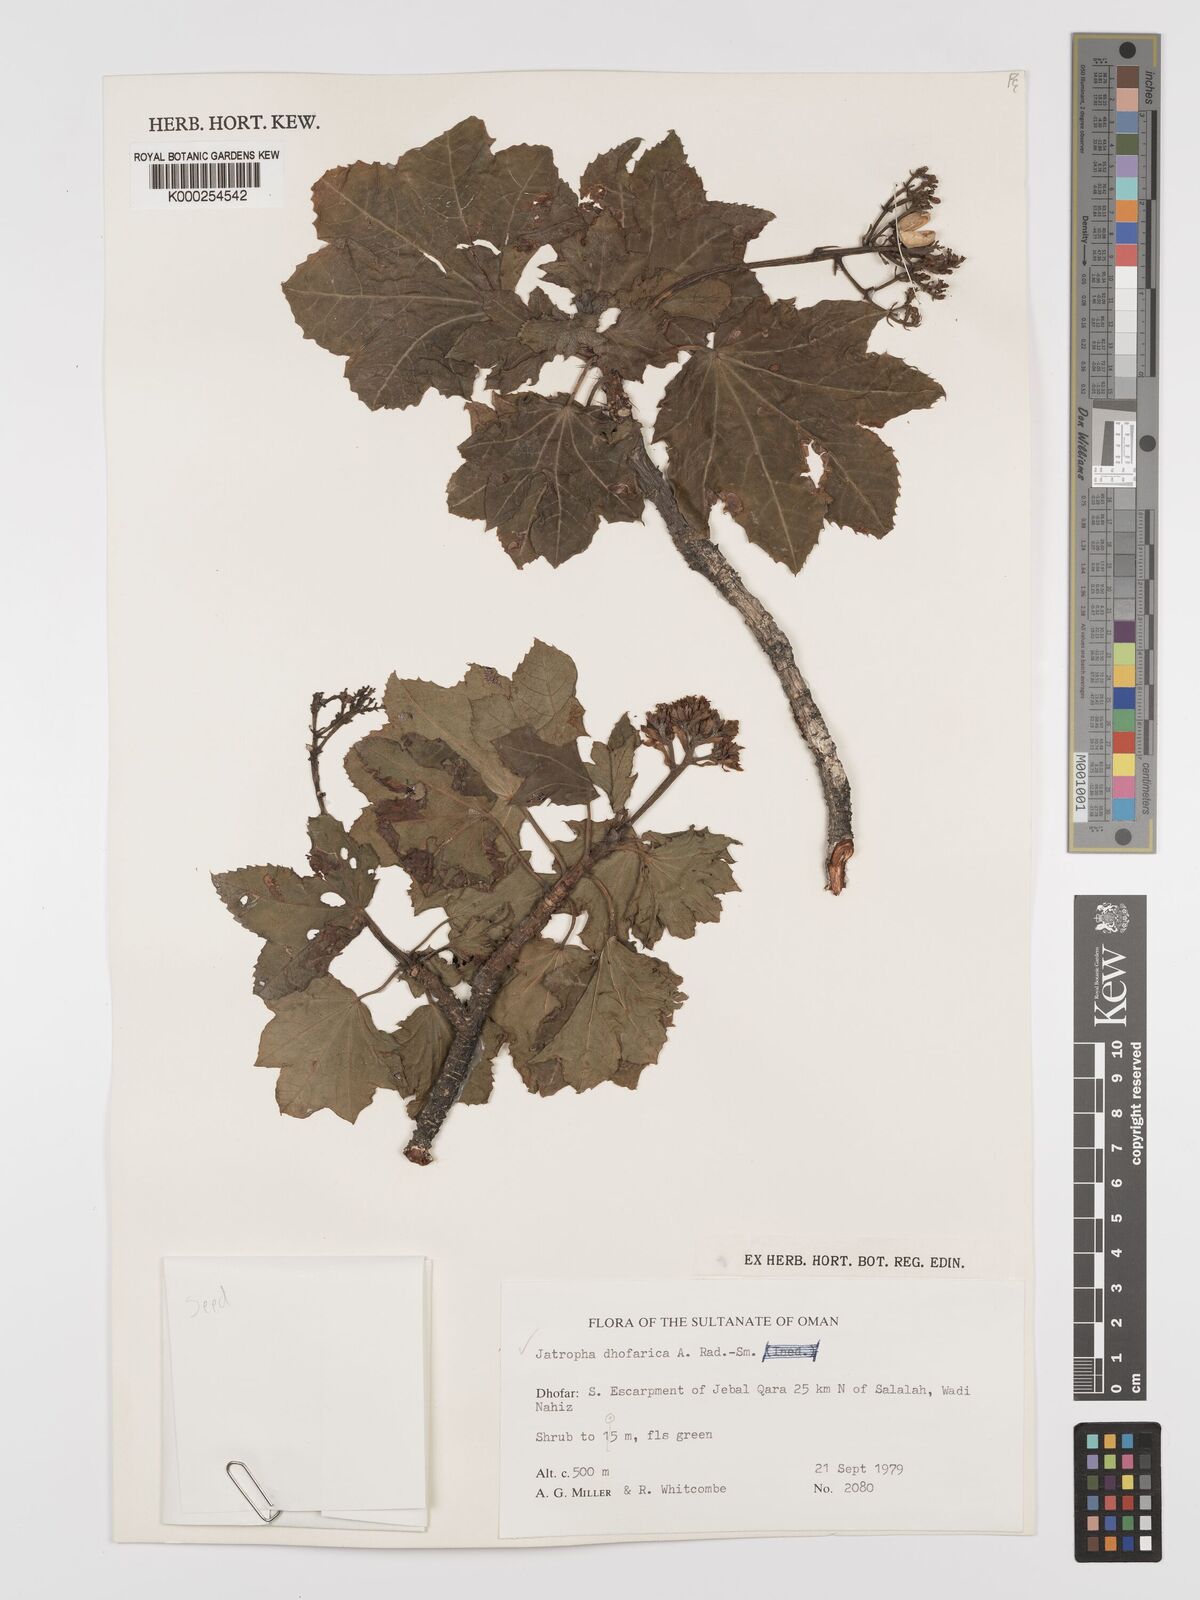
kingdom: Plantae
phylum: Tracheophyta
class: Magnoliopsida
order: Malpighiales
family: Euphorbiaceae
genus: Jatropha
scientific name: Jatropha dhofarica
